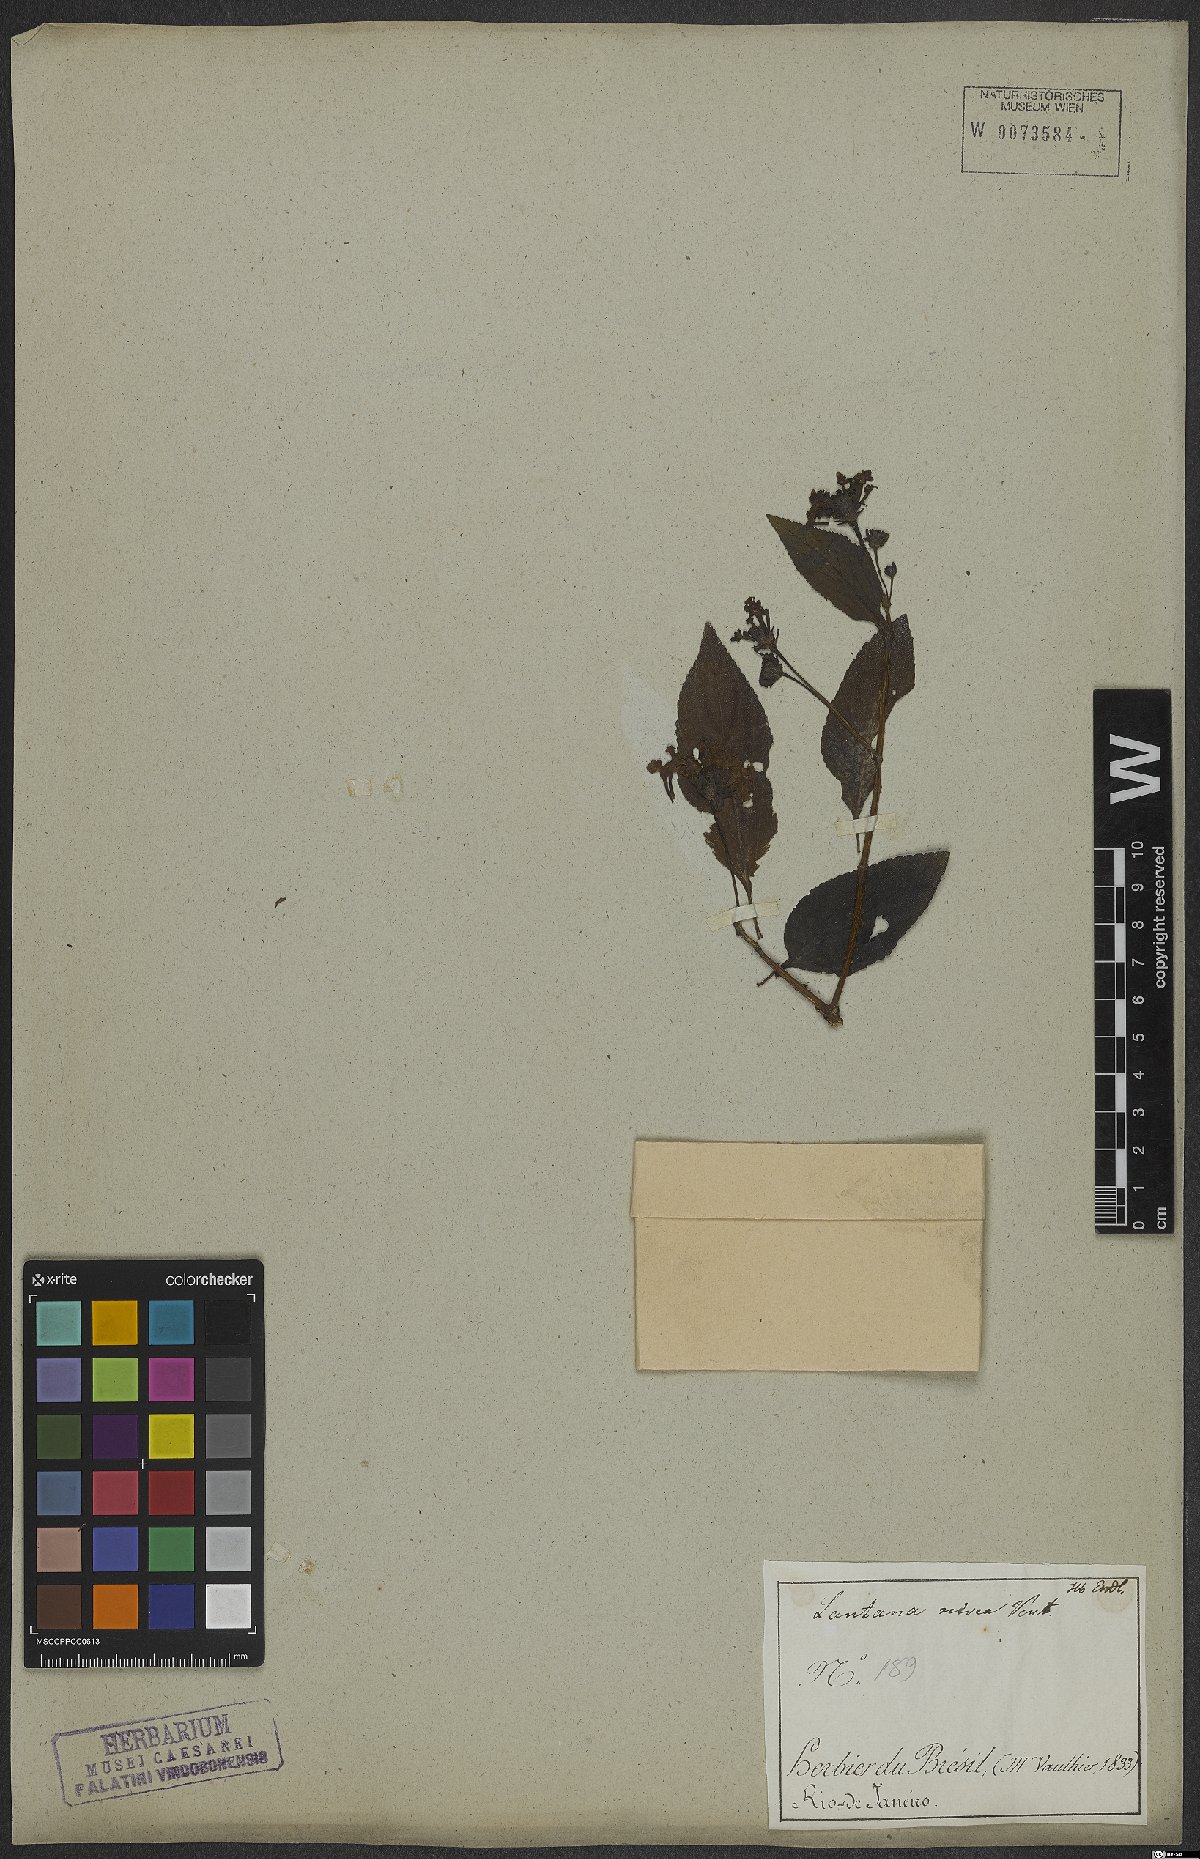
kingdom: Plantae
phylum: Tracheophyta
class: Magnoliopsida
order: Lamiales
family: Verbenaceae
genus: Lantana
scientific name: Lantana nivea
